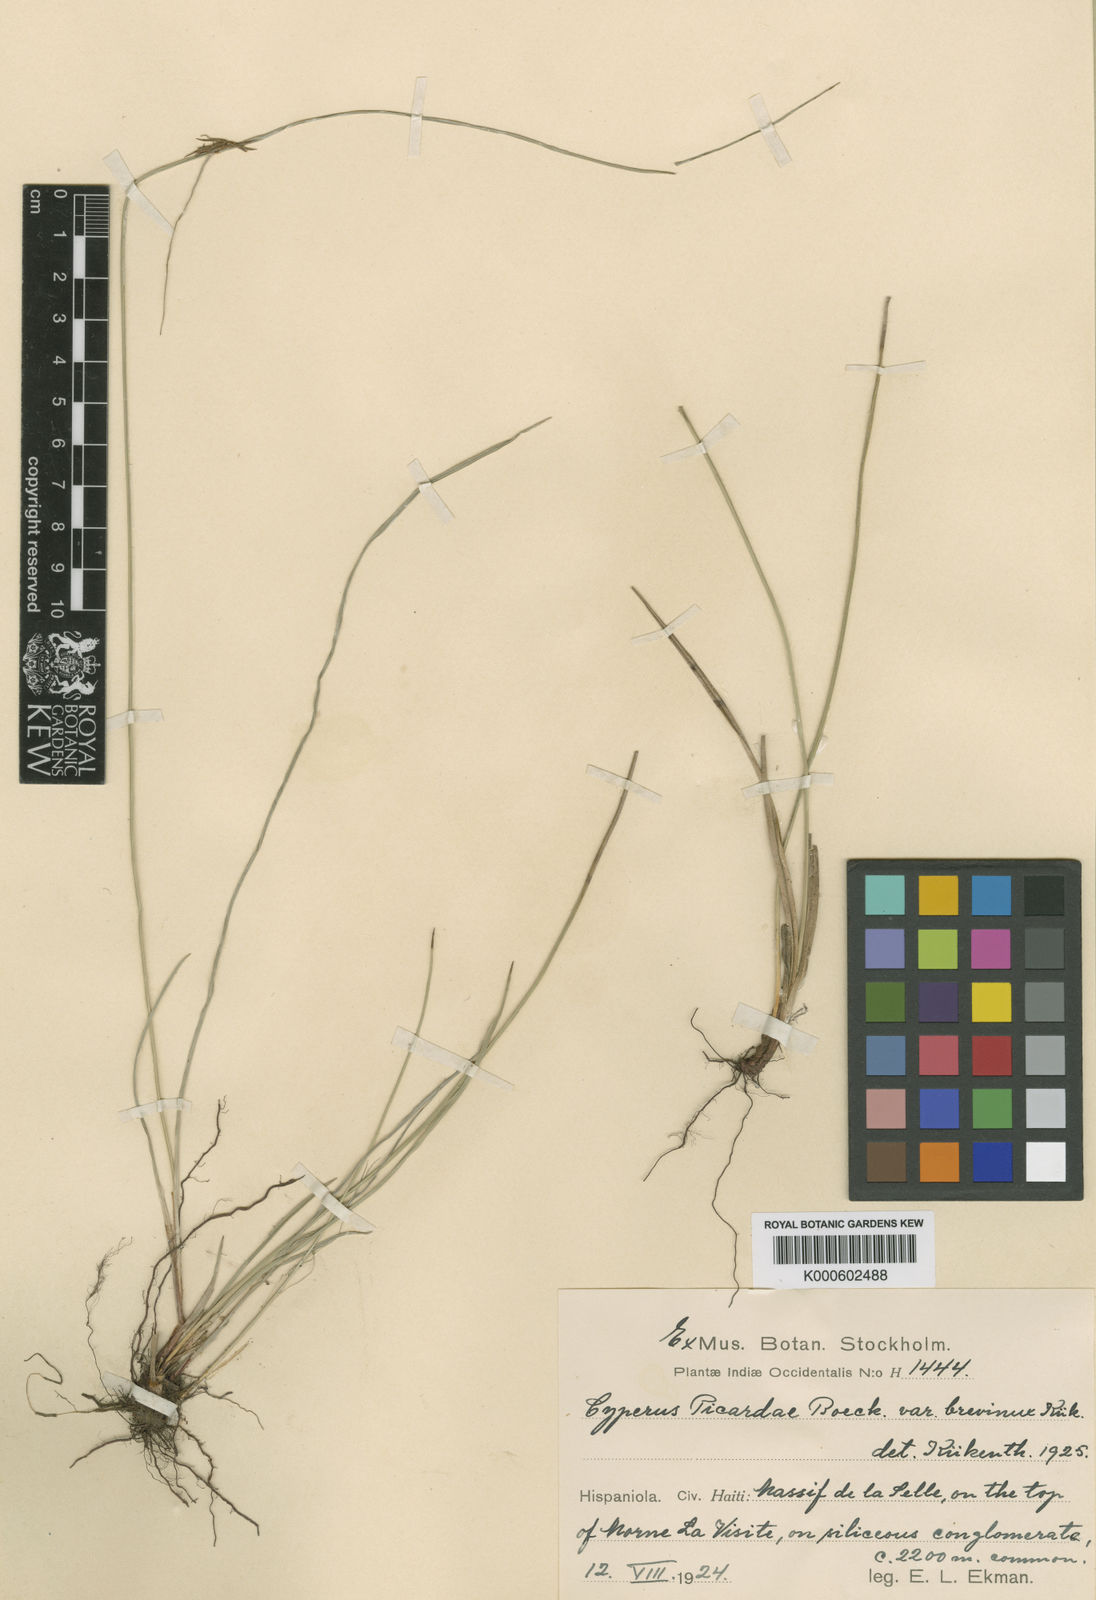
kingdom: Plantae
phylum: Tracheophyta
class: Liliopsida
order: Poales
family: Cyperaceae
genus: Cyperus
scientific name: Cyperus picardae
